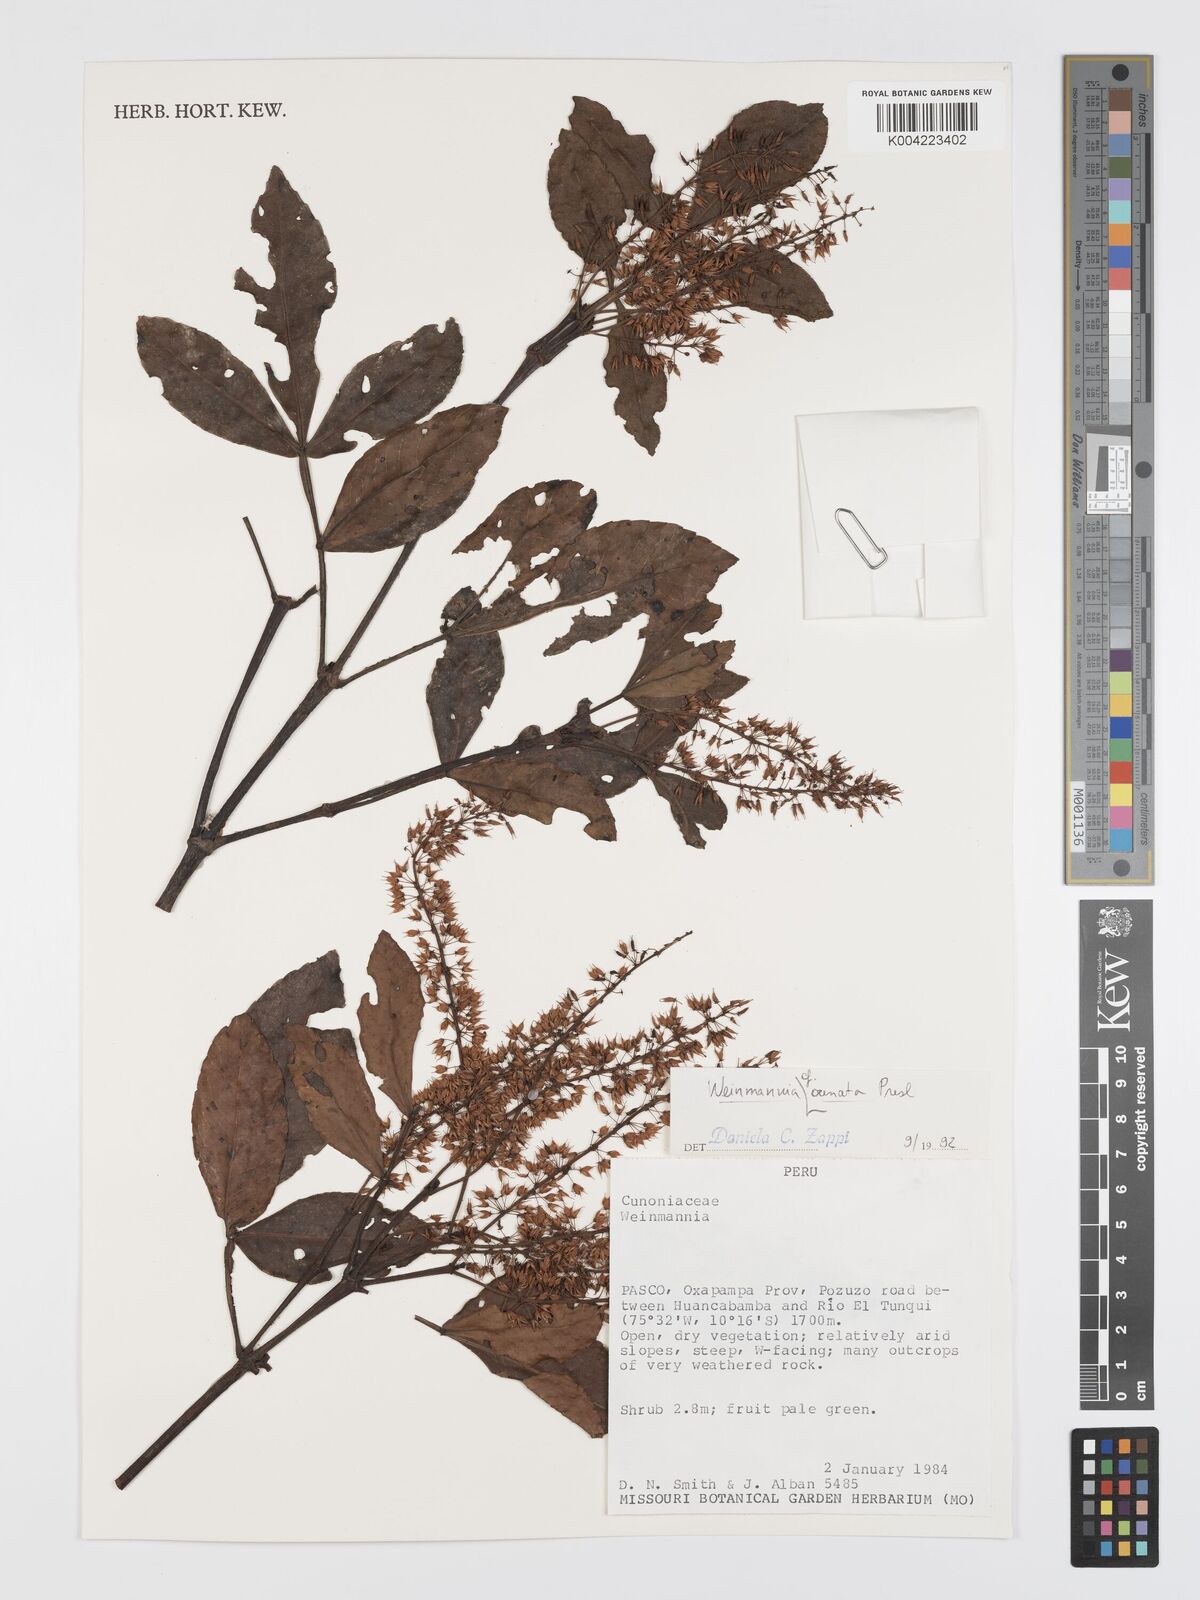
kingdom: Plantae
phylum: Tracheophyta
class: Magnoliopsida
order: Oxalidales
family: Cunoniaceae
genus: Weinmannia
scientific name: Weinmannia ovata
